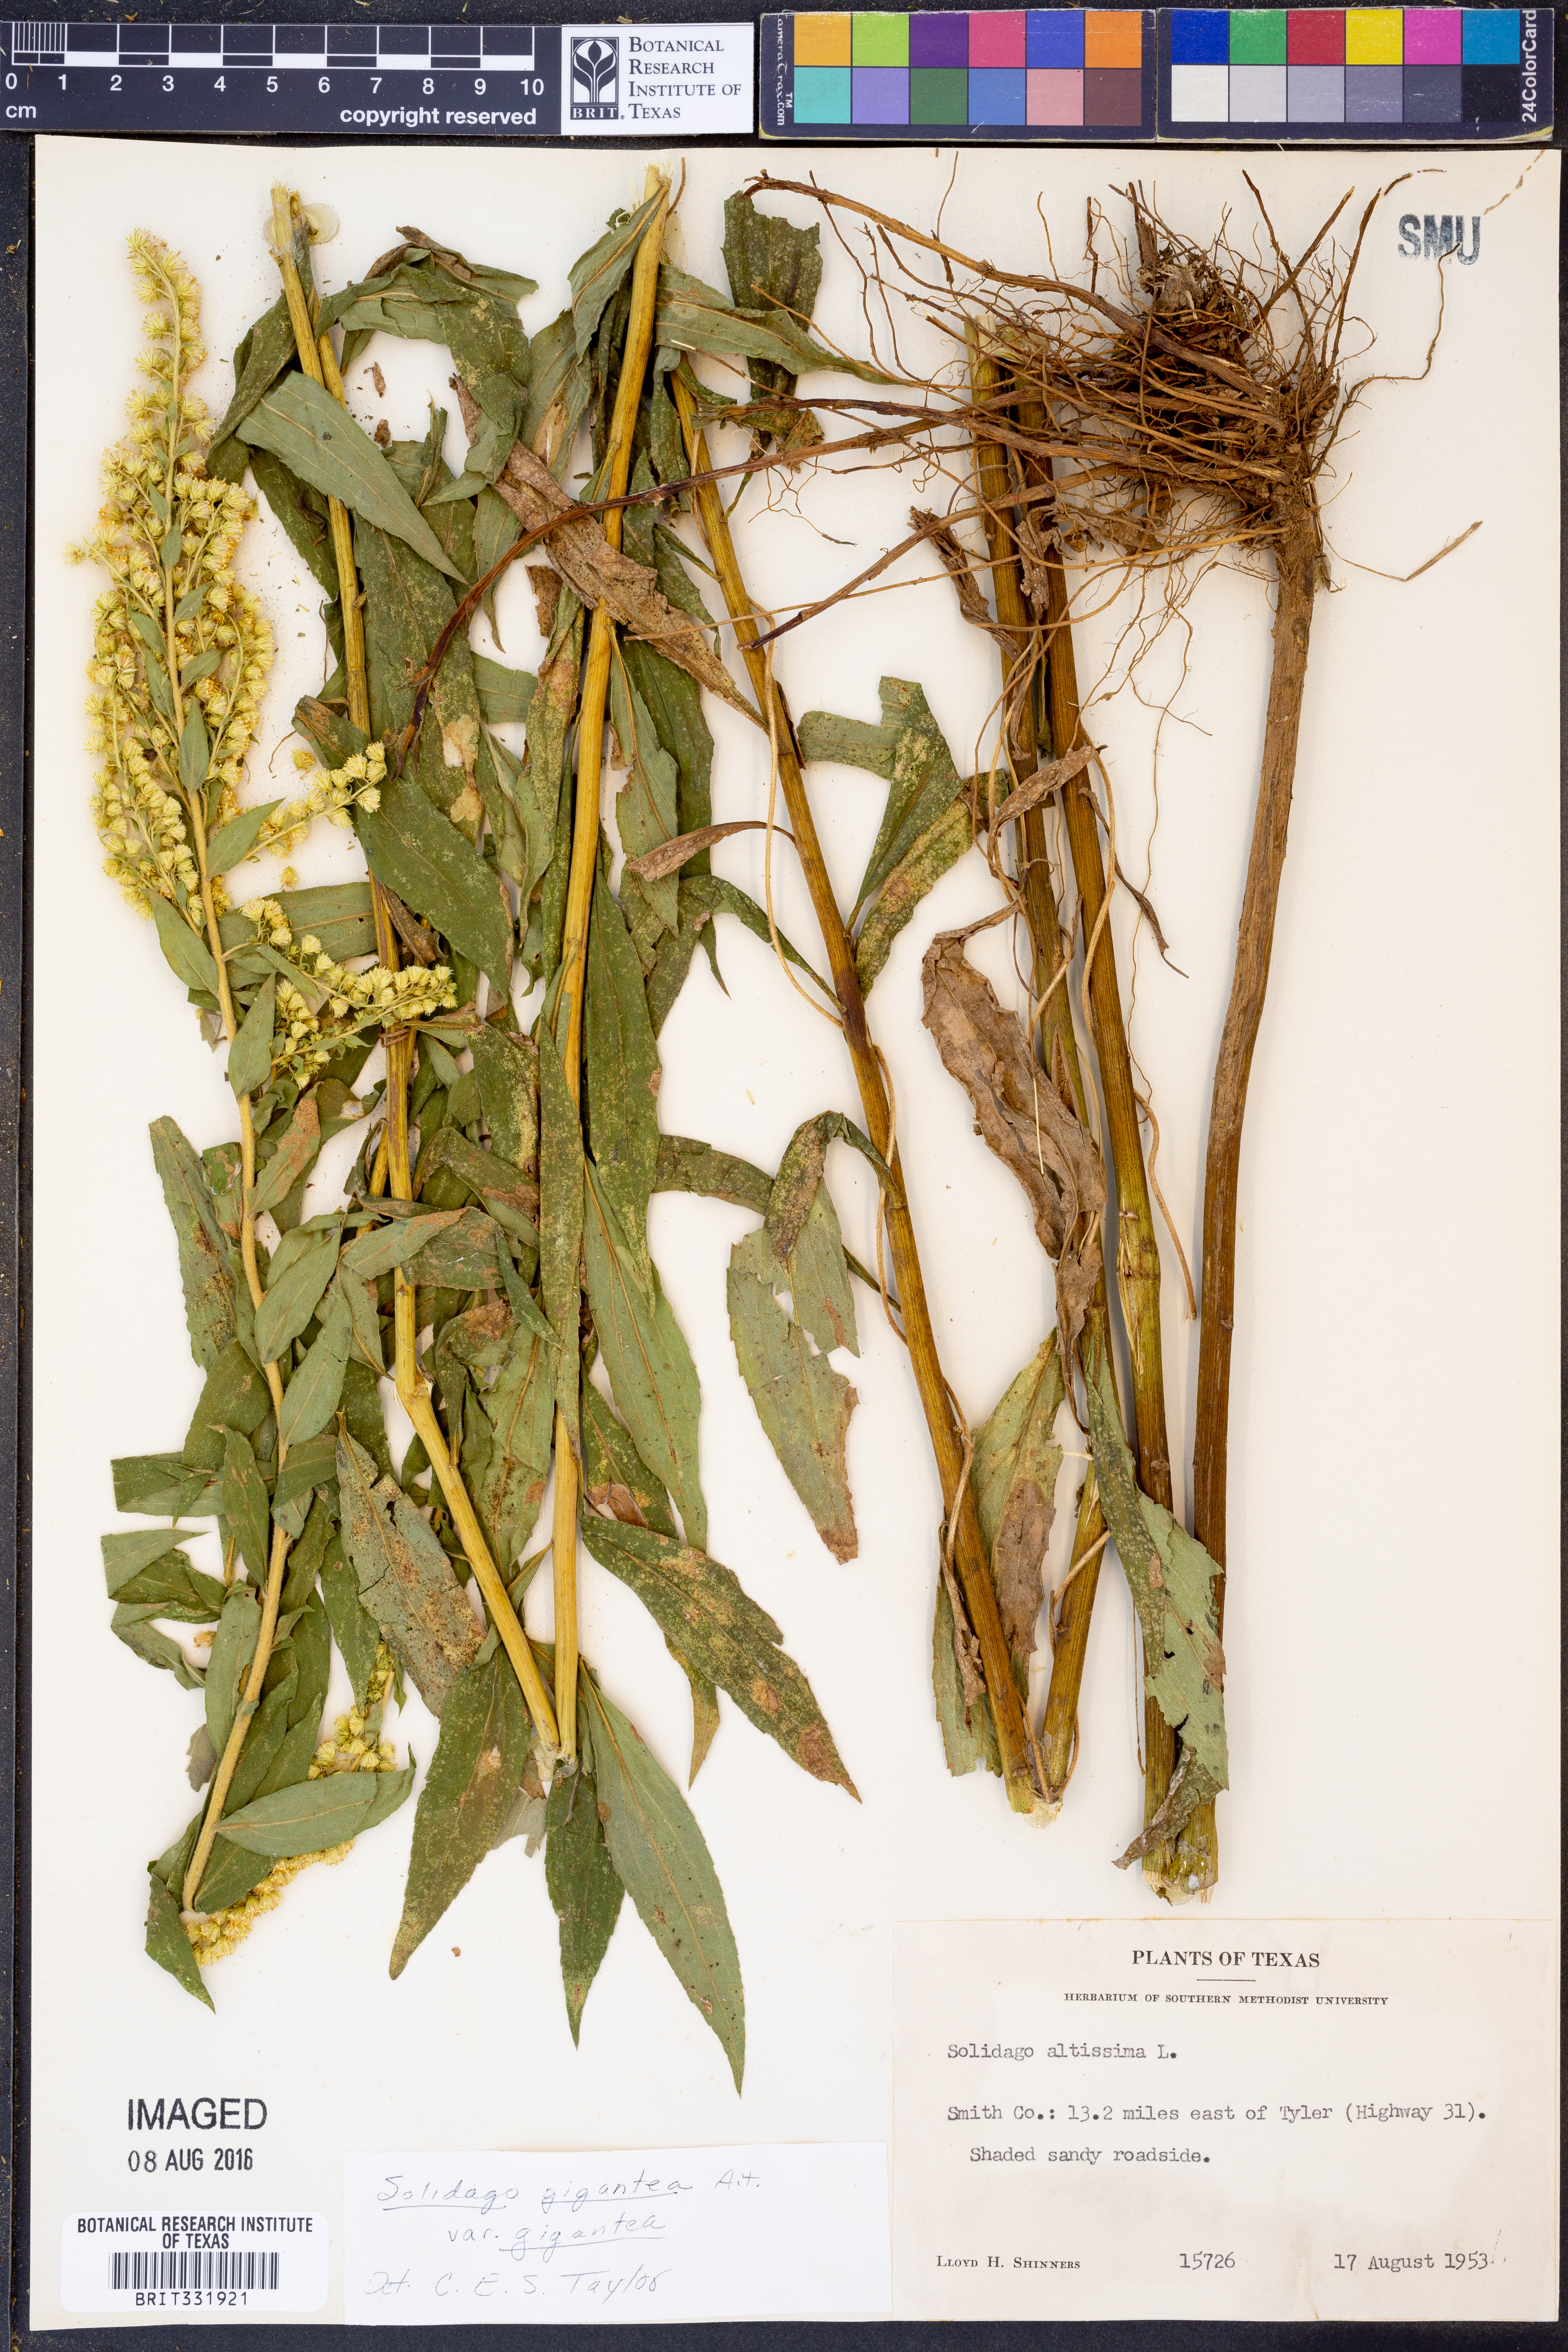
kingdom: Plantae
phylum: Tracheophyta
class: Magnoliopsida
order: Asterales
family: Asteraceae
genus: Solidago
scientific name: Solidago gigantea
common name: Giant goldenrod
